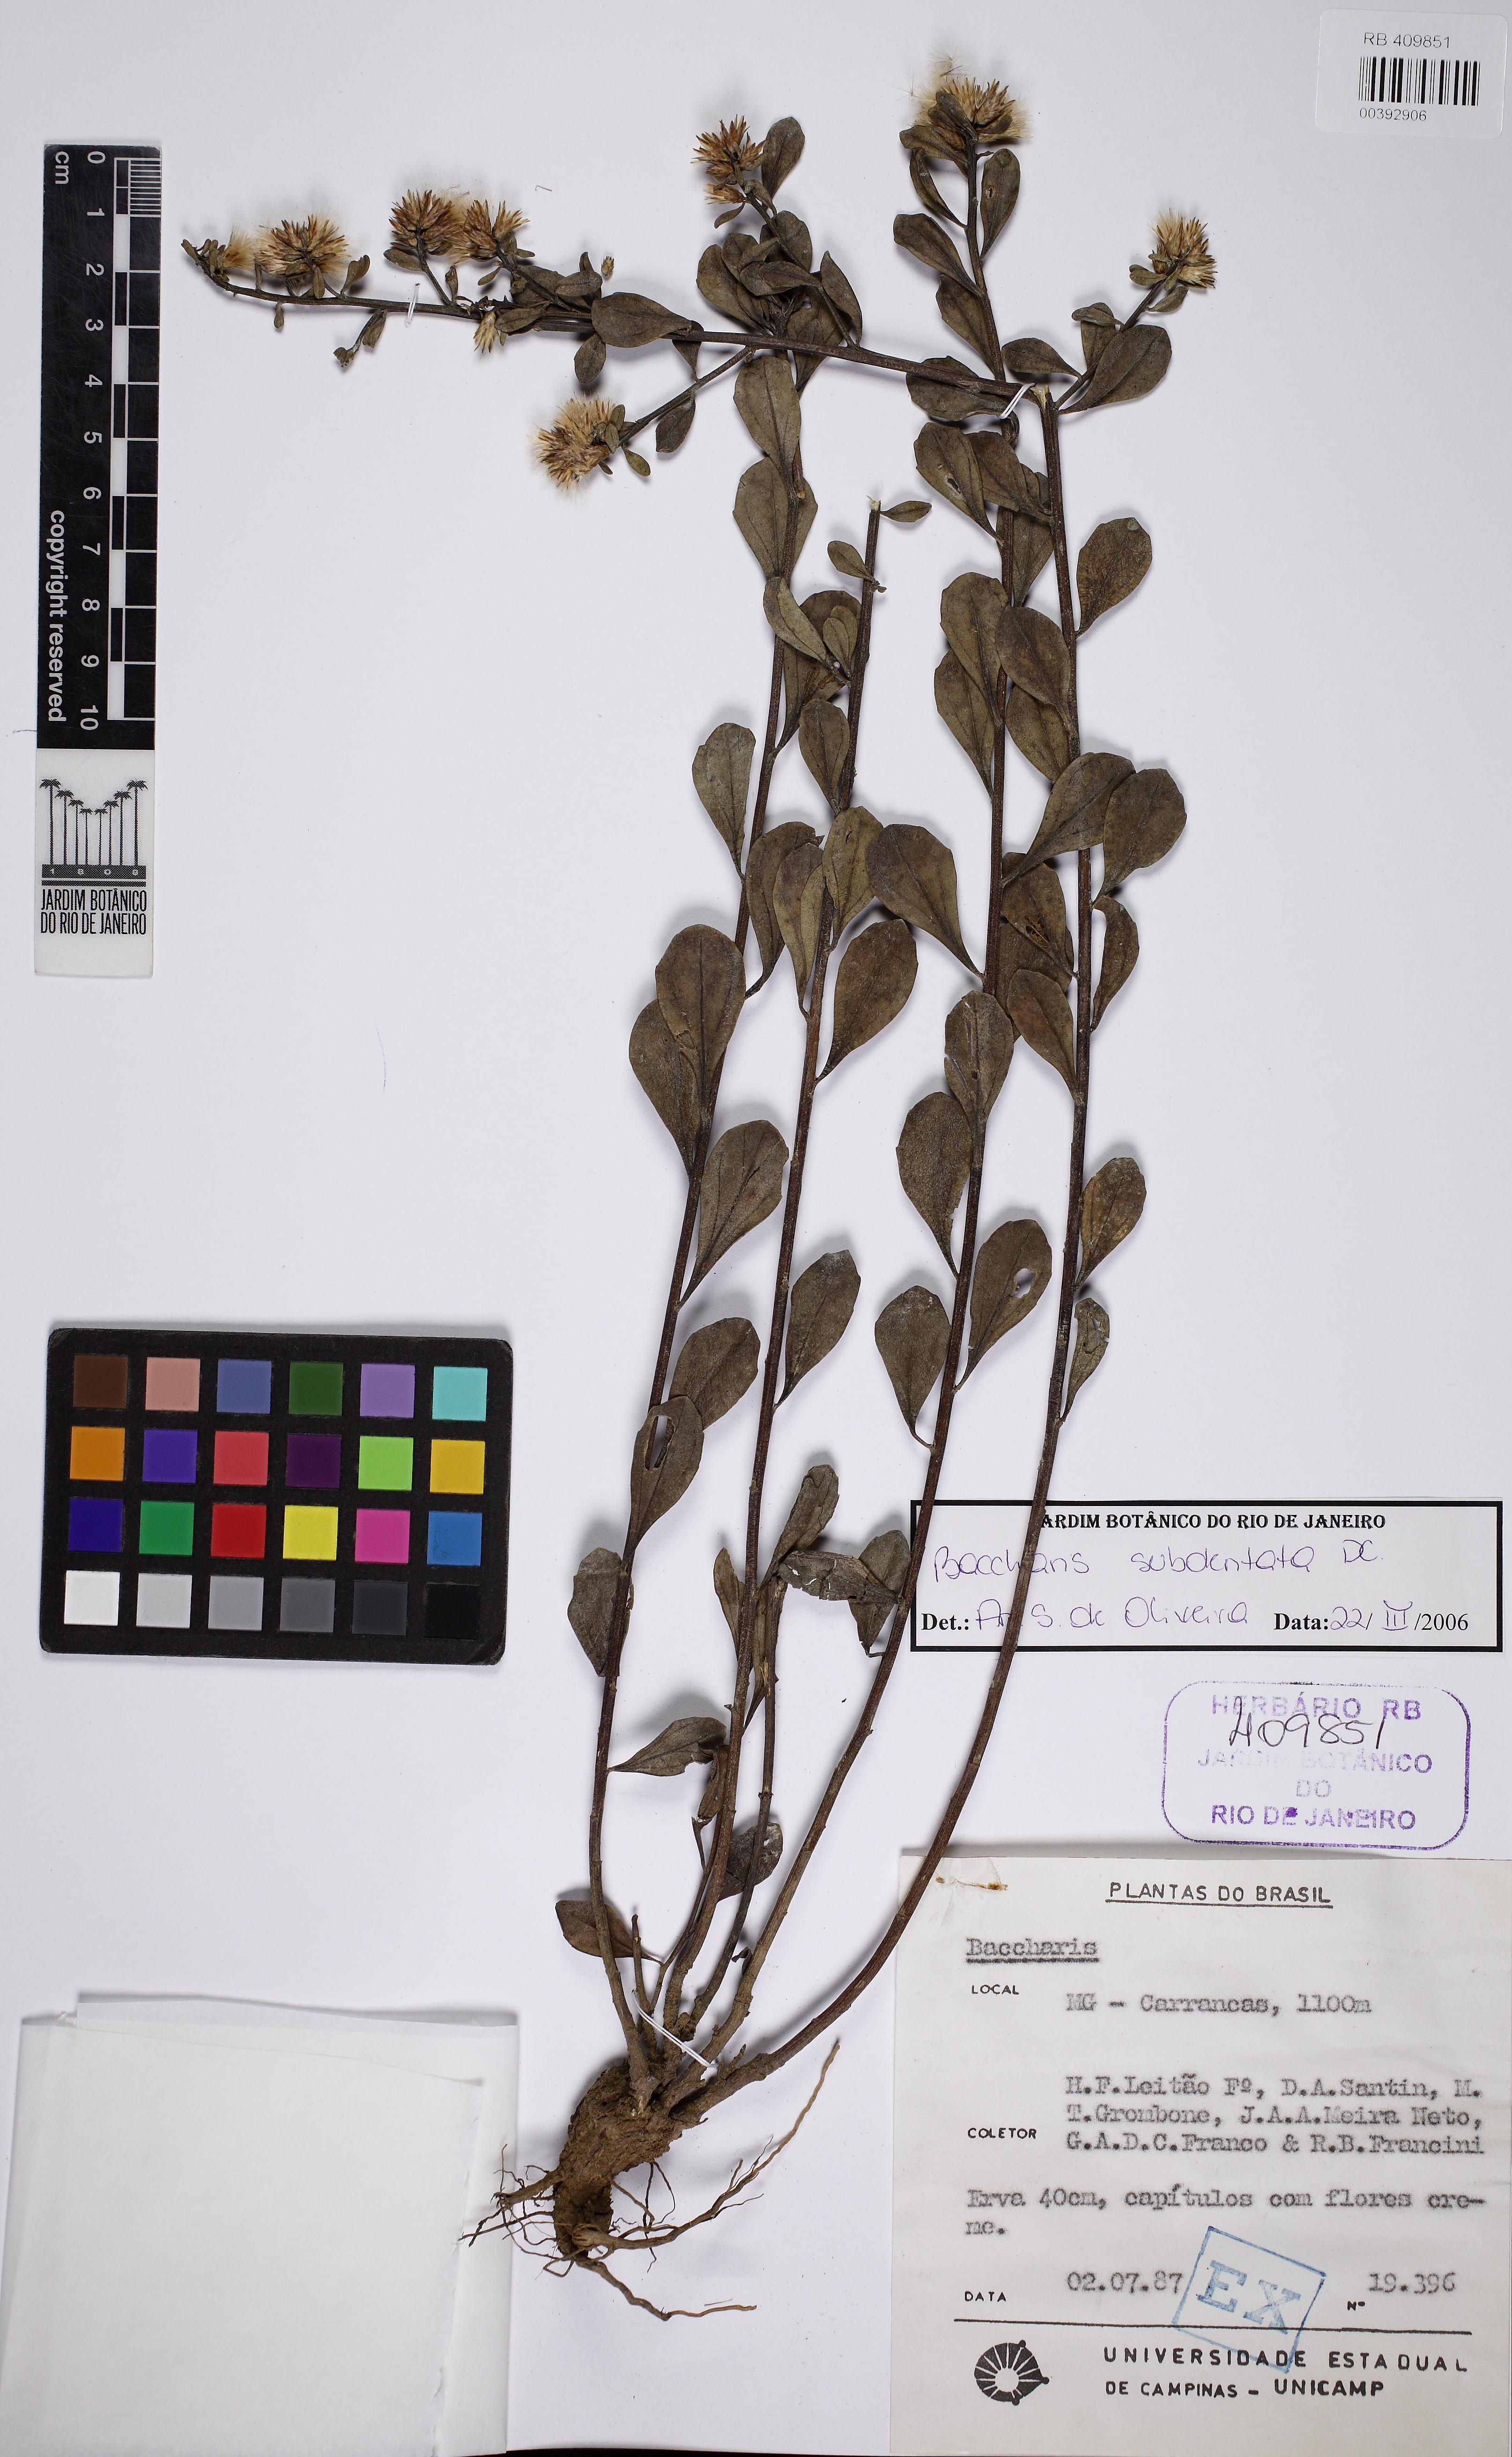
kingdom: Plantae
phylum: Tracheophyta
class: Magnoliopsida
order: Asterales
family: Asteraceae
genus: Baccharis
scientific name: Baccharis subdentata
